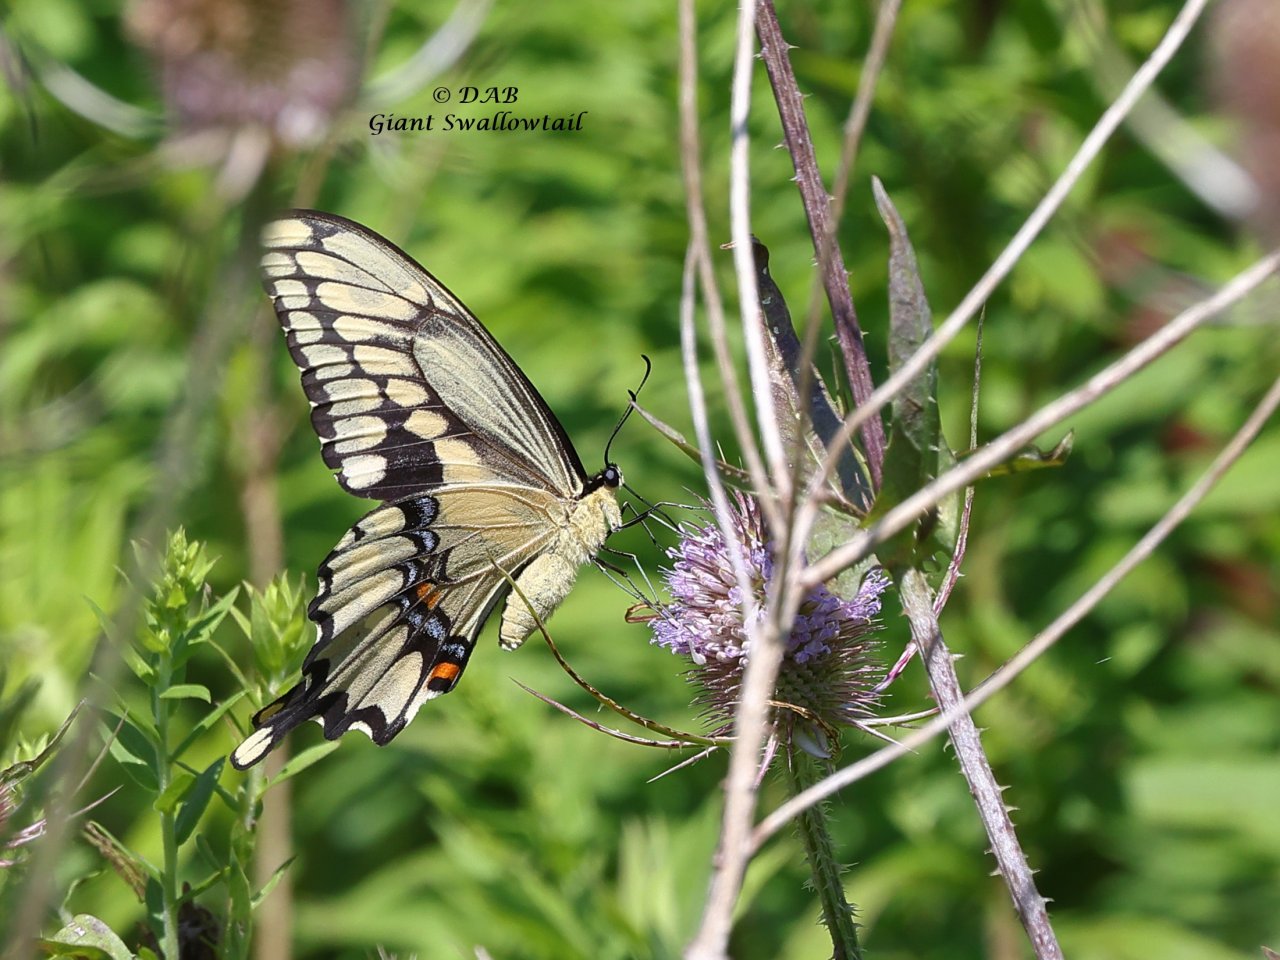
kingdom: Animalia
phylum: Arthropoda
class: Insecta
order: Lepidoptera
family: Papilionidae
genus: Papilio
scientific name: Papilio cresphontes
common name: Eastern Giant Swallowtail
